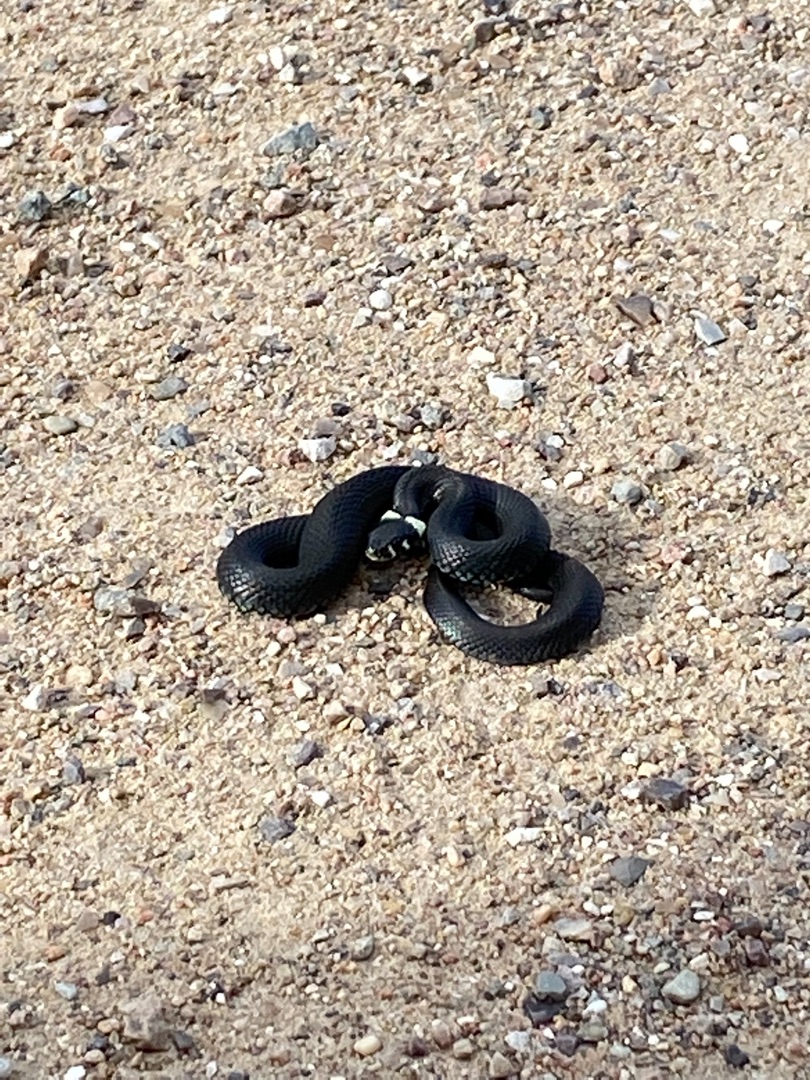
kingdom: Animalia
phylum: Chordata
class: Squamata
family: Colubridae
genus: Natrix
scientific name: Natrix natrix
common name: Snog
